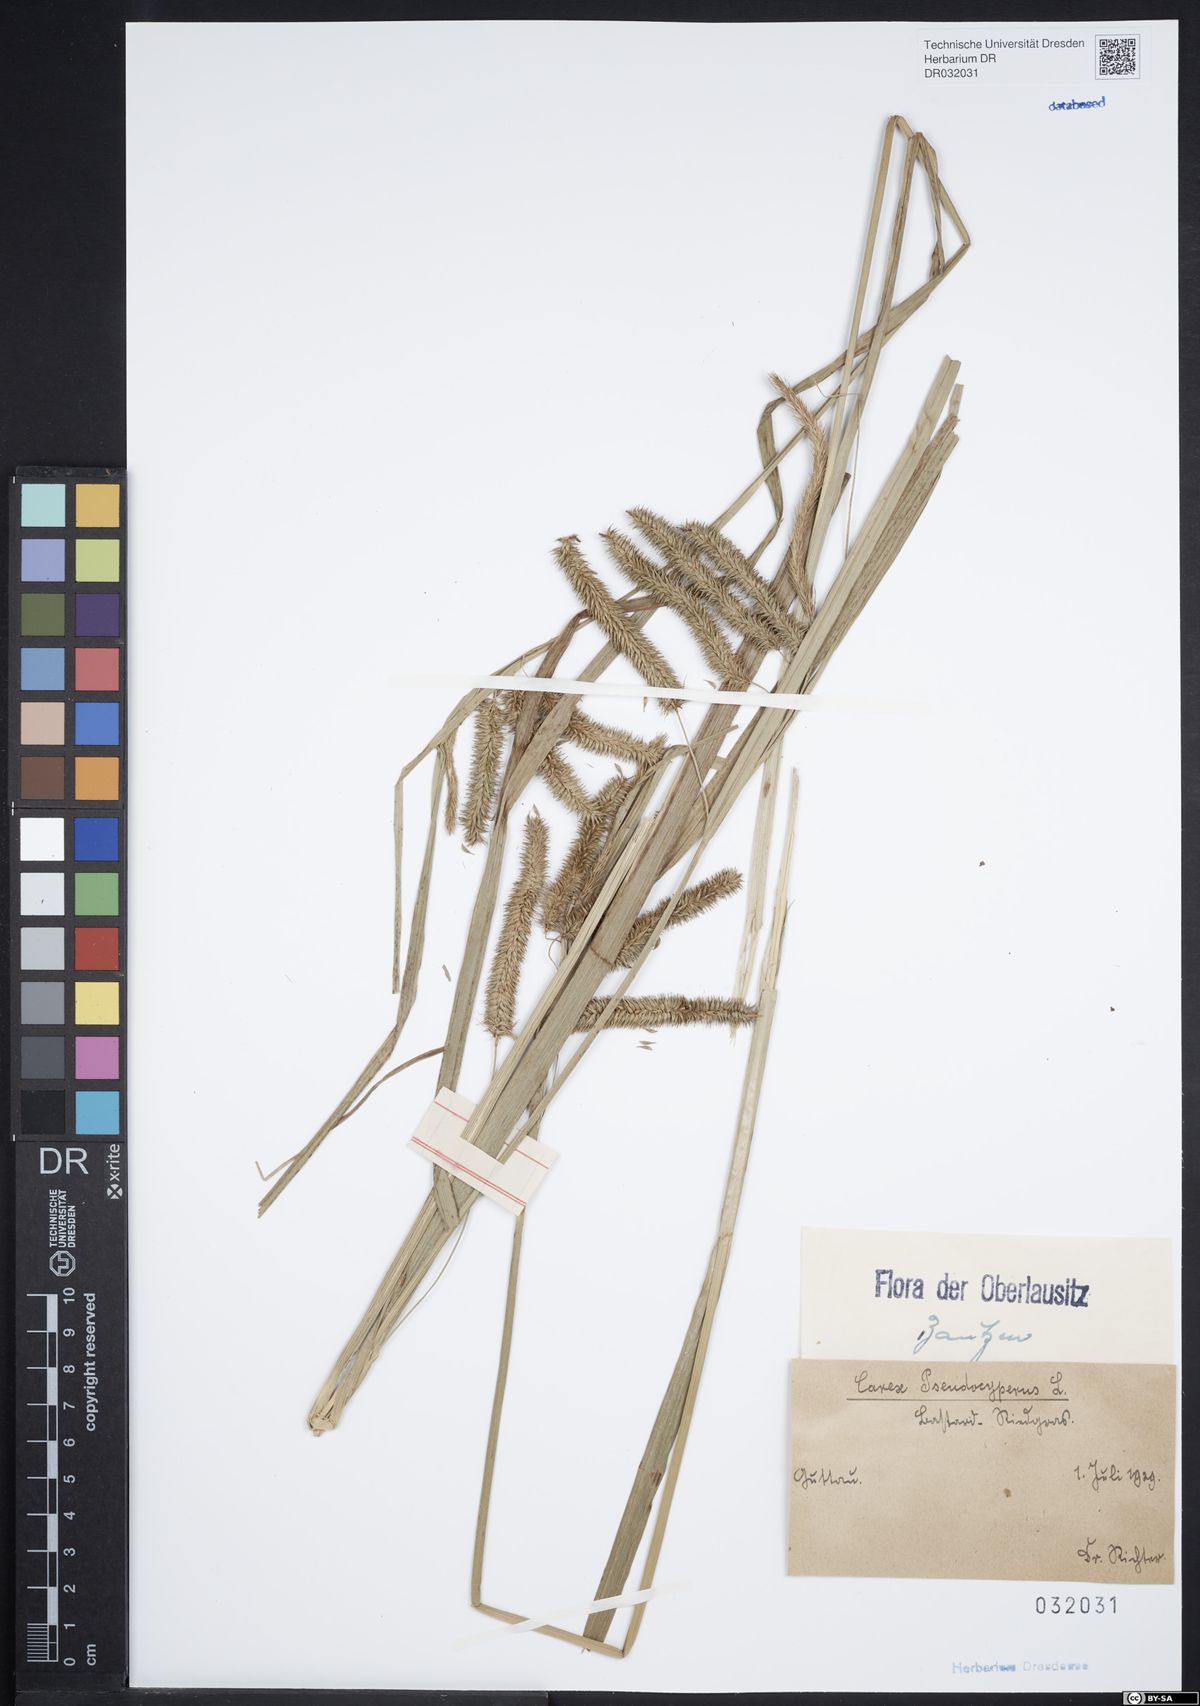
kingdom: Plantae
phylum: Tracheophyta
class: Liliopsida
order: Poales
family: Cyperaceae
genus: Carex
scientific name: Carex pseudocyperus
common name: Cyperus sedge
